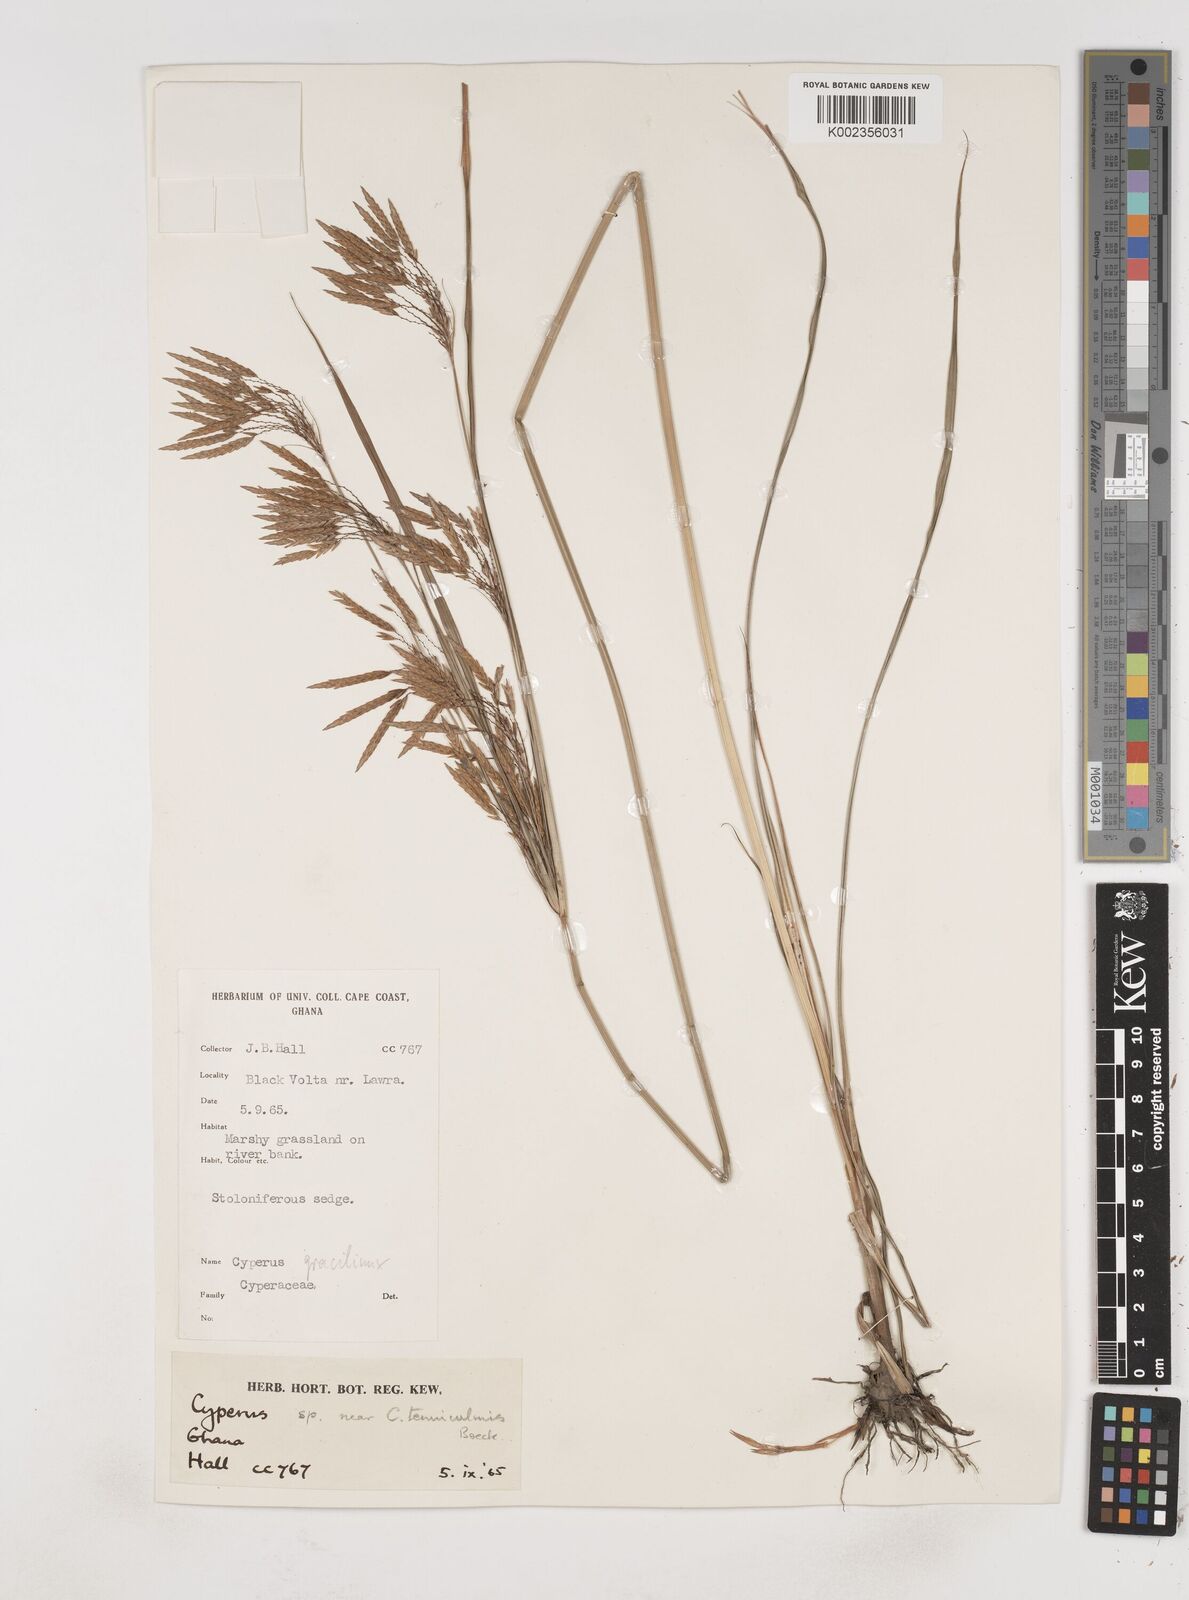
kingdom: Plantae
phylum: Tracheophyta
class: Liliopsida
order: Poales
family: Cyperaceae
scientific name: Cyperaceae
